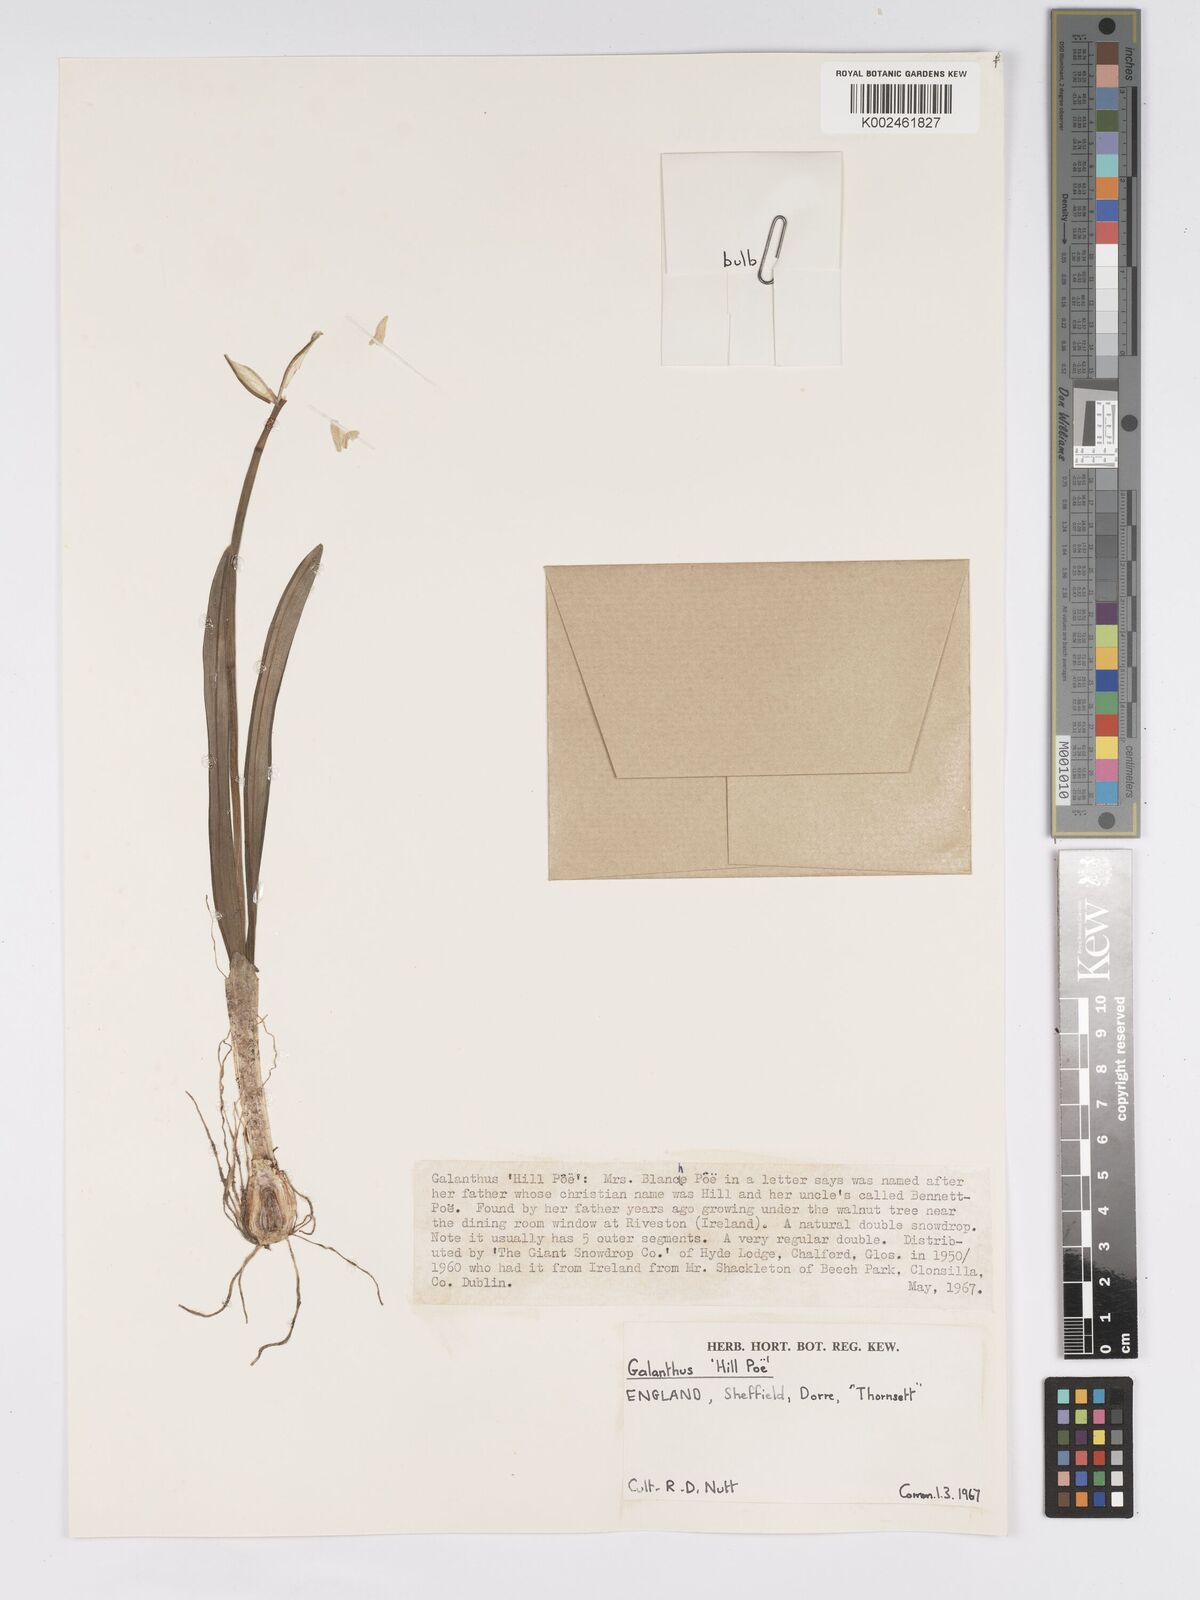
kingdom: Plantae
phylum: Tracheophyta
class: Liliopsida
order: Asparagales
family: Amaryllidaceae
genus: Galanthus
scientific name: Galanthus
